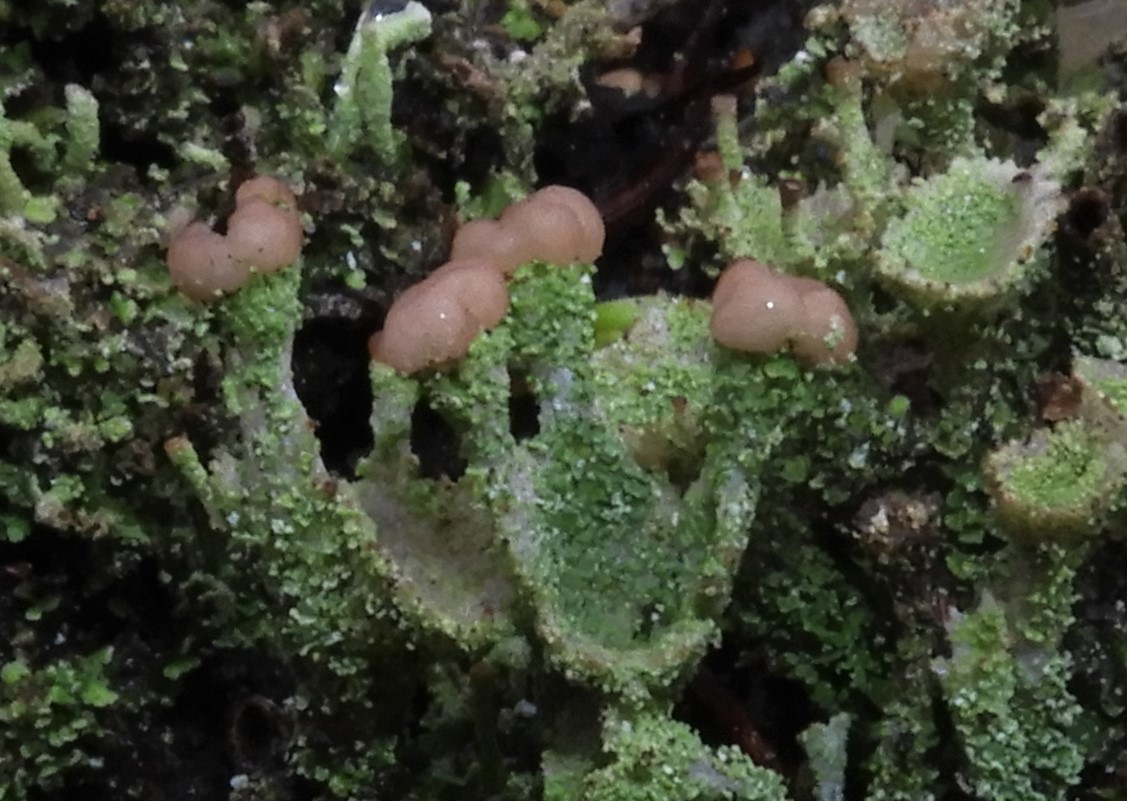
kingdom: Fungi
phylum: Ascomycota
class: Lecanoromycetes
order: Lecanorales
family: Cladoniaceae
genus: Cladonia
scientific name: Cladonia ramulosa
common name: kliddet bægerlav
